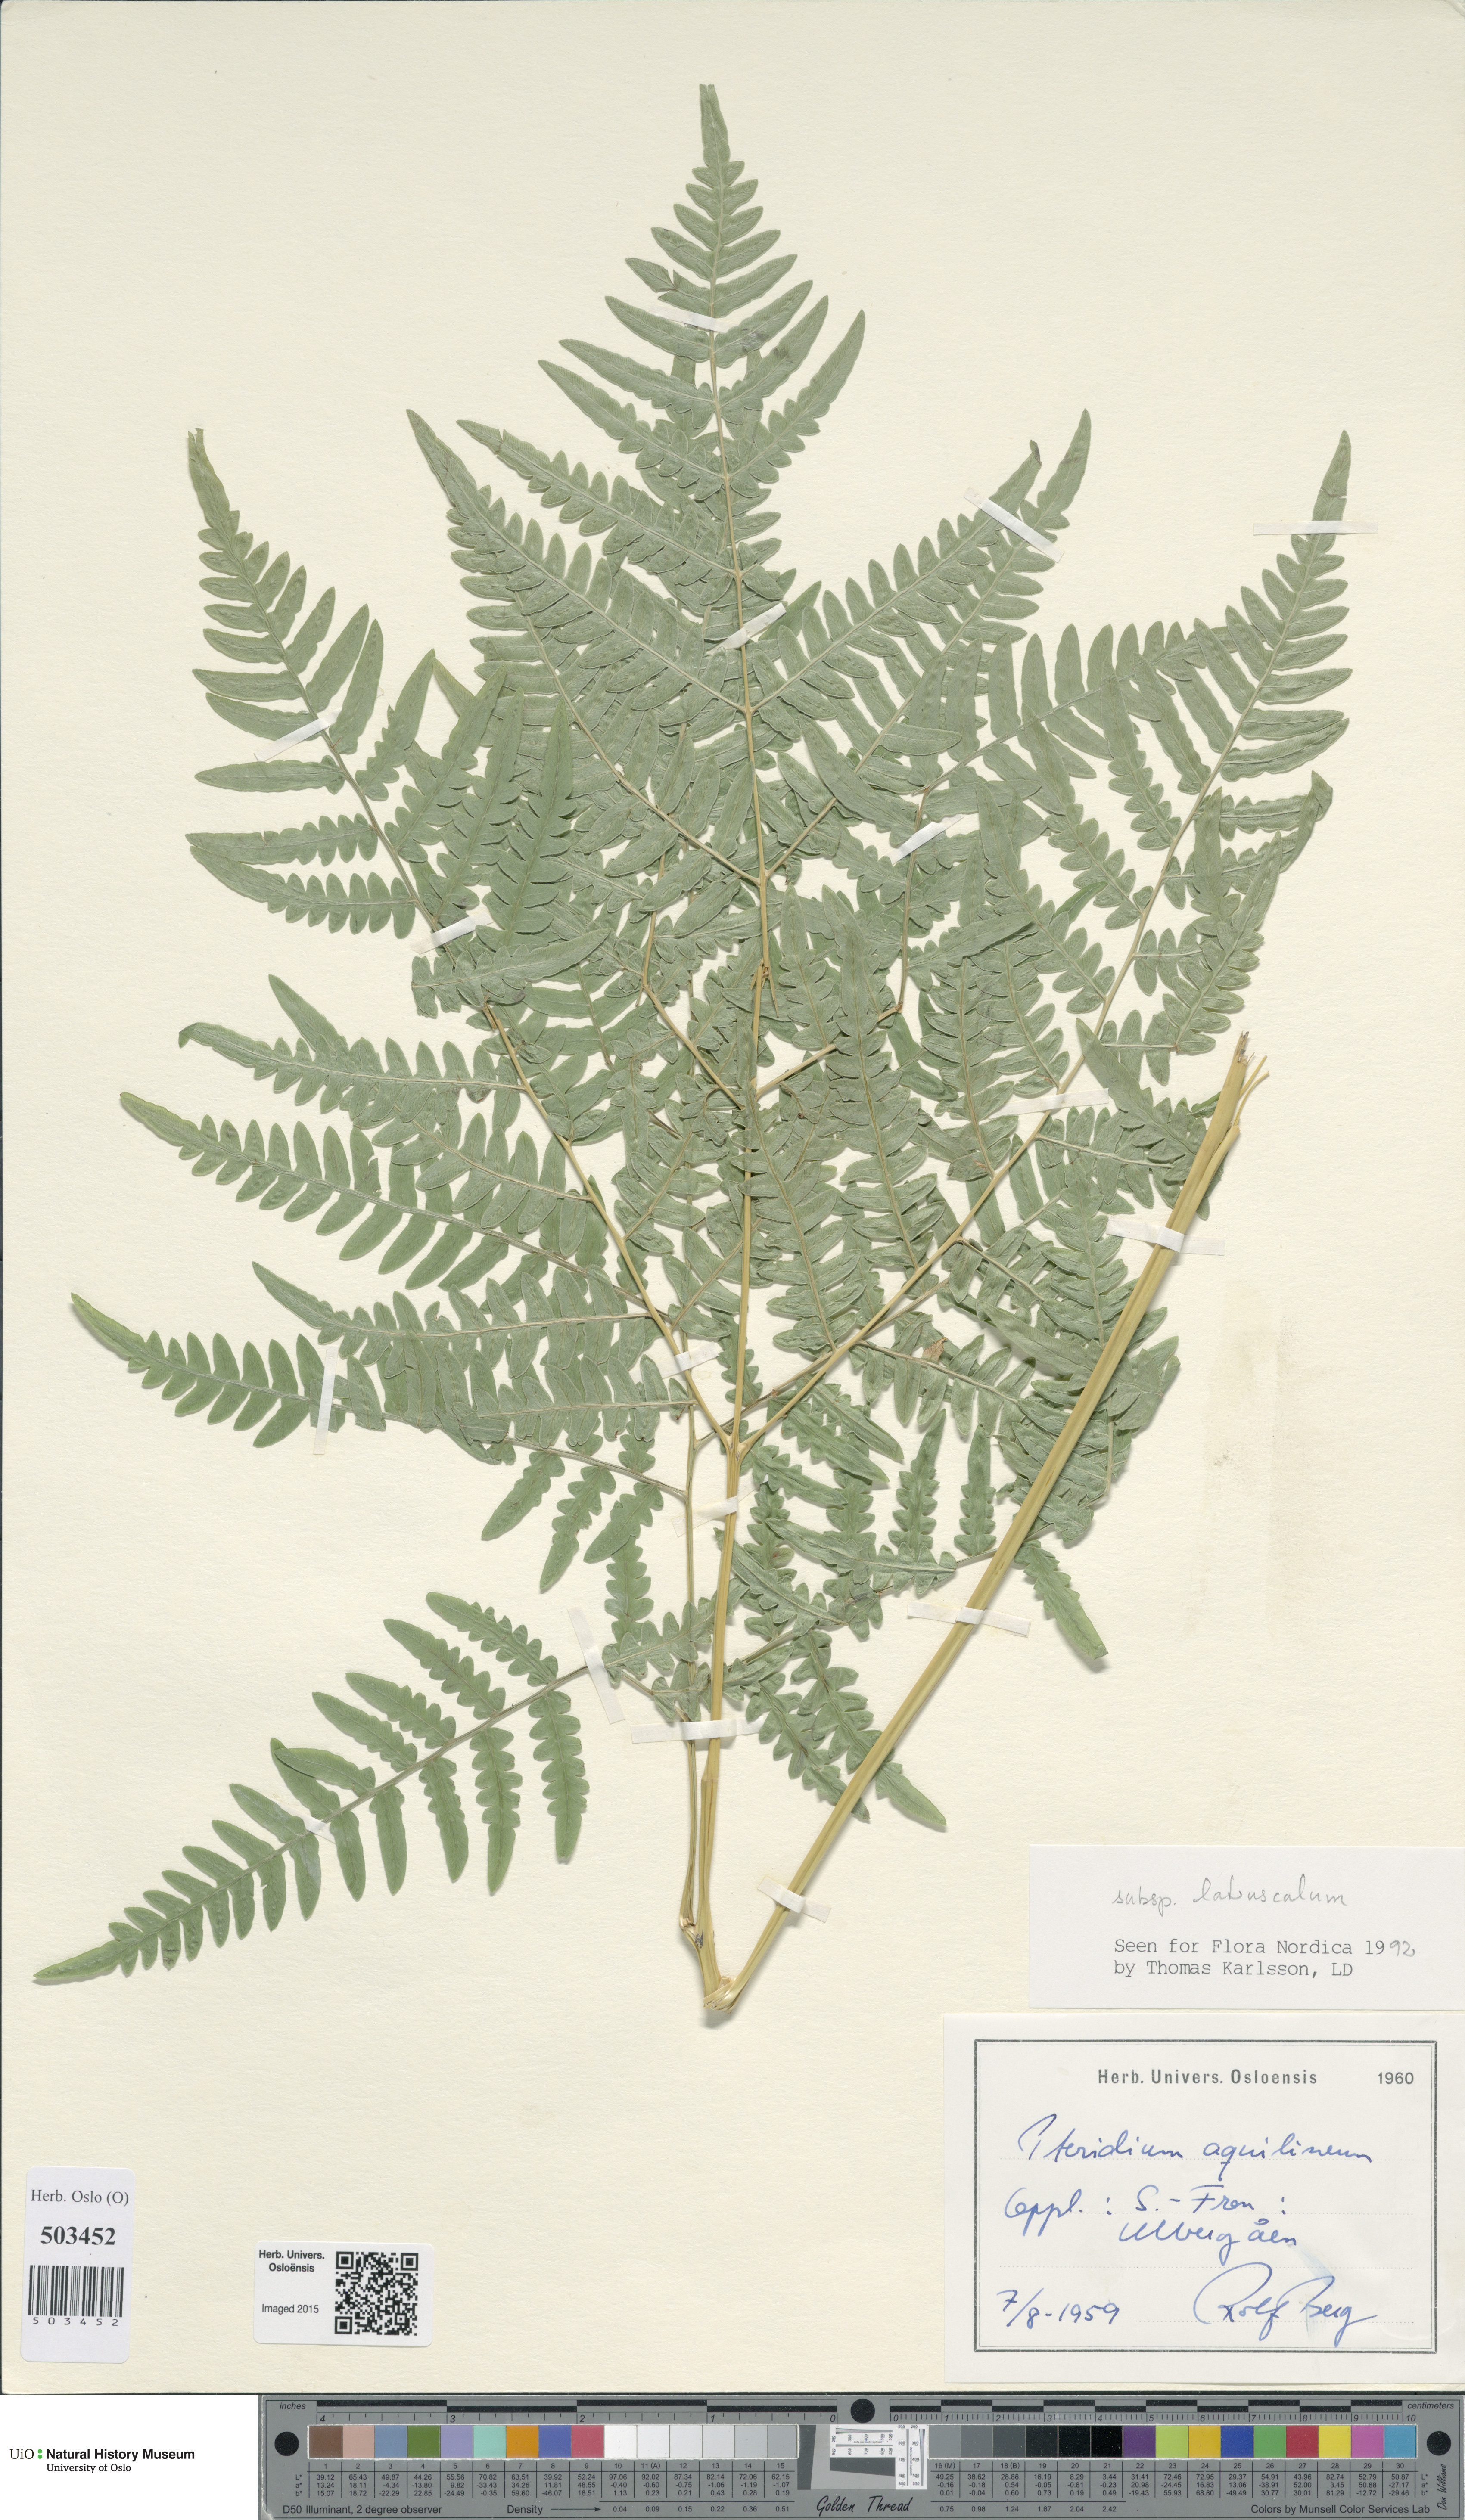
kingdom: Plantae
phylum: Tracheophyta
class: Polypodiopsida
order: Polypodiales
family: Dennstaedtiaceae
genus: Pteridium
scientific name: Pteridium aquilinum
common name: Bracken
